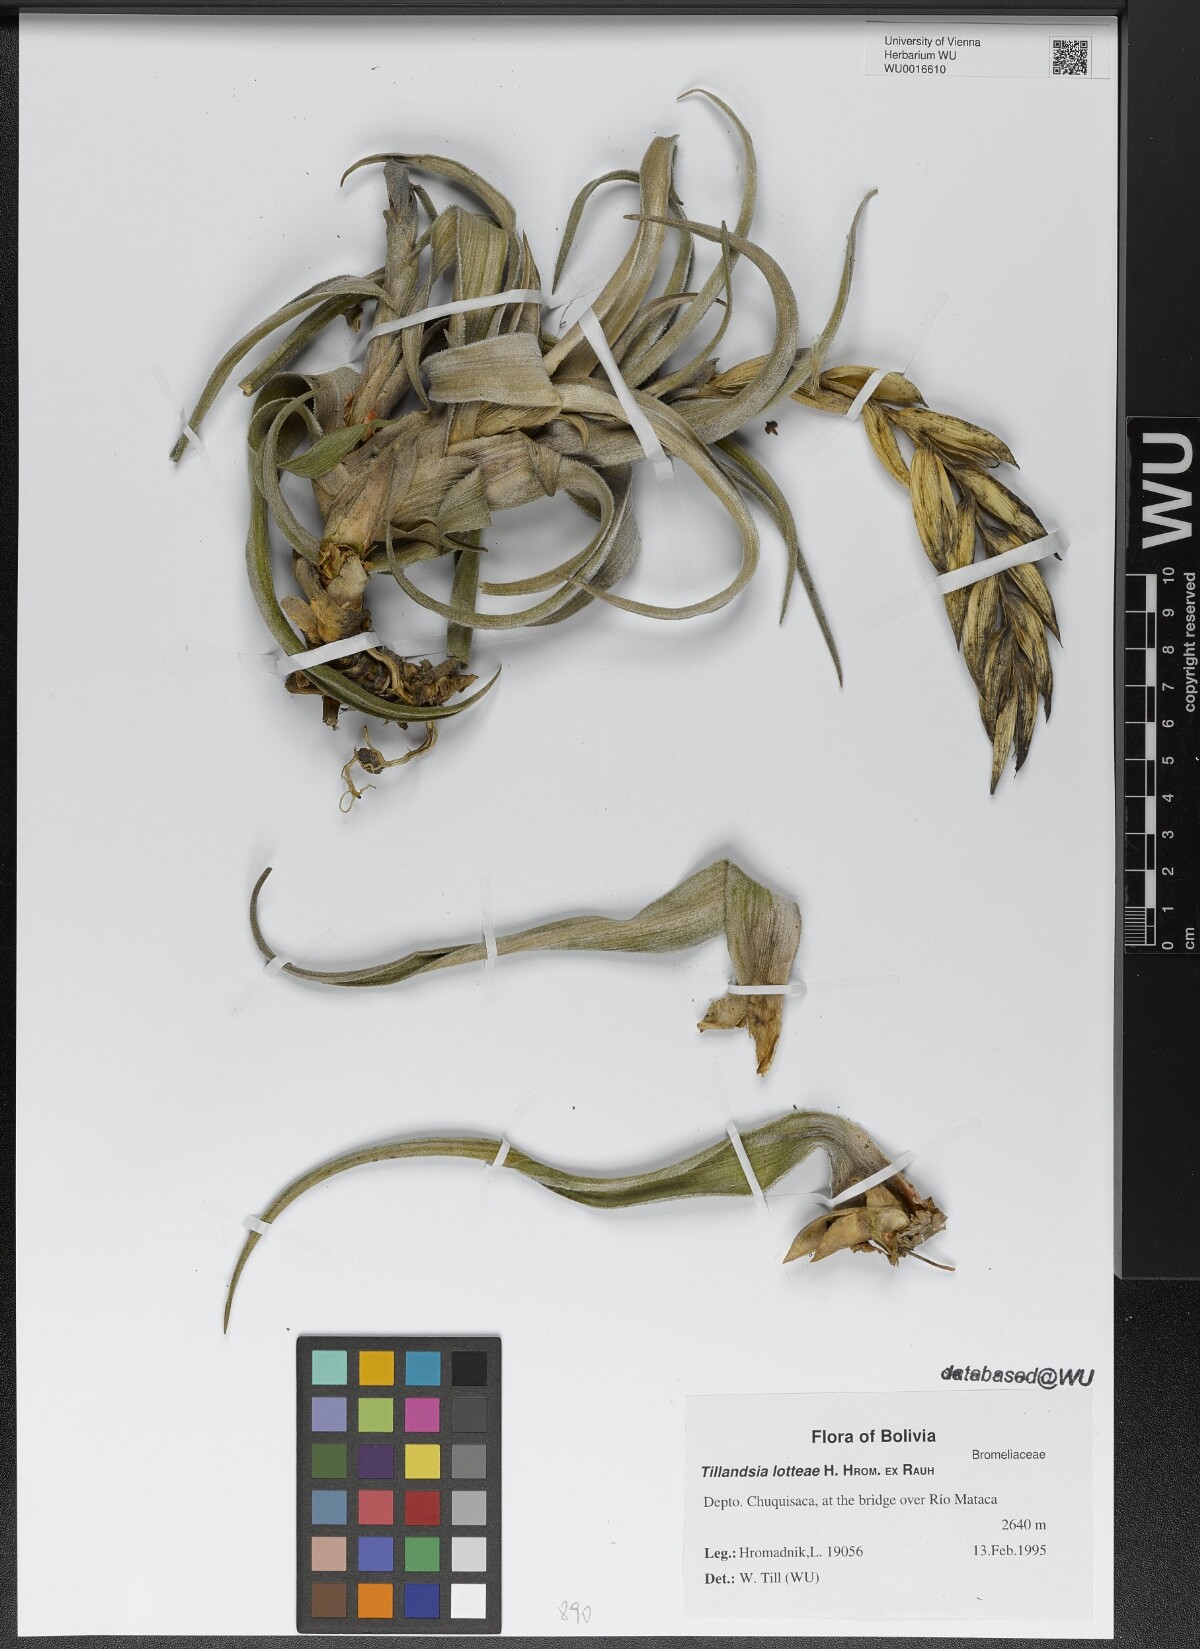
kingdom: Plantae
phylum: Tracheophyta
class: Liliopsida
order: Poales
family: Bromeliaceae
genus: Tillandsia
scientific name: Tillandsia lotteae
